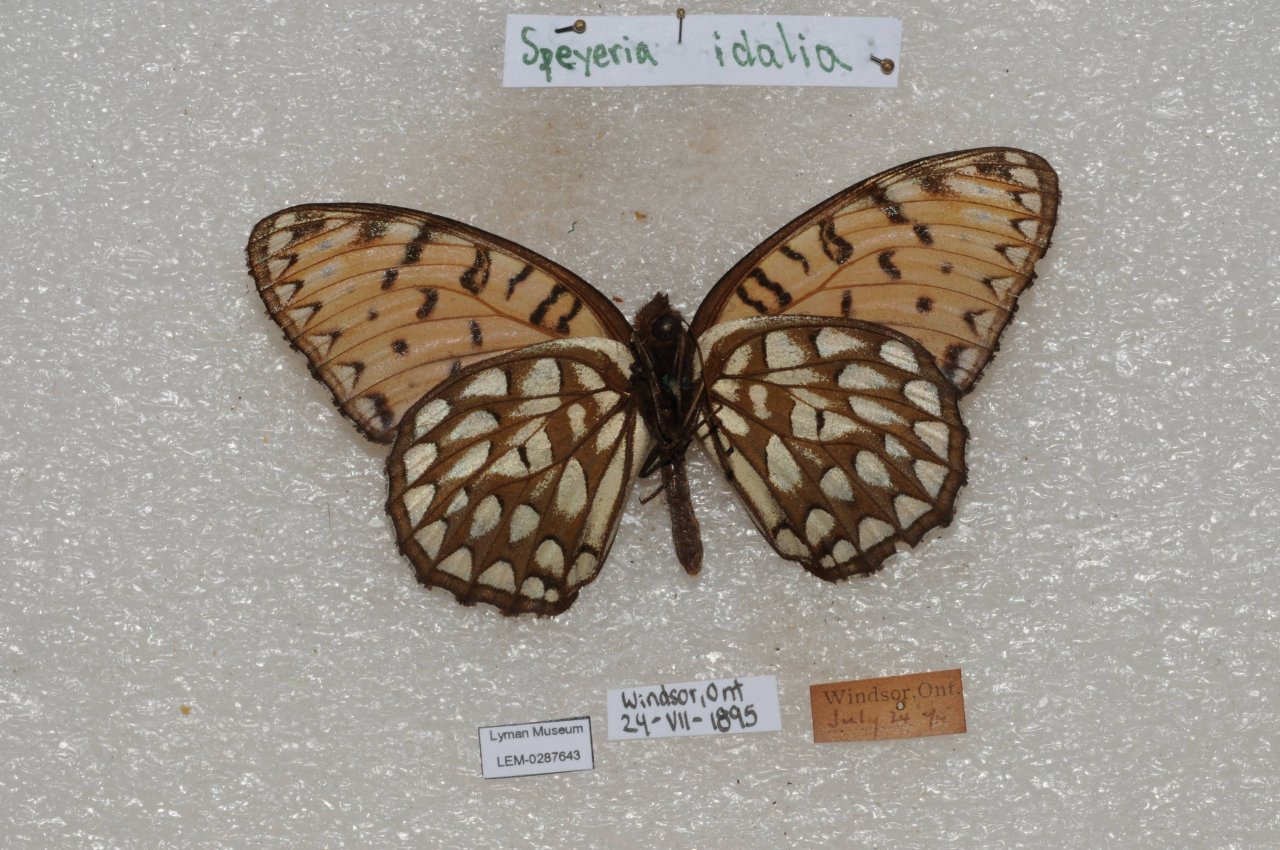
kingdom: Animalia
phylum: Arthropoda
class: Insecta
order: Lepidoptera
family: Nymphalidae
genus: Speyeria
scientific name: Speyeria idalia
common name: Regal Fritillary
